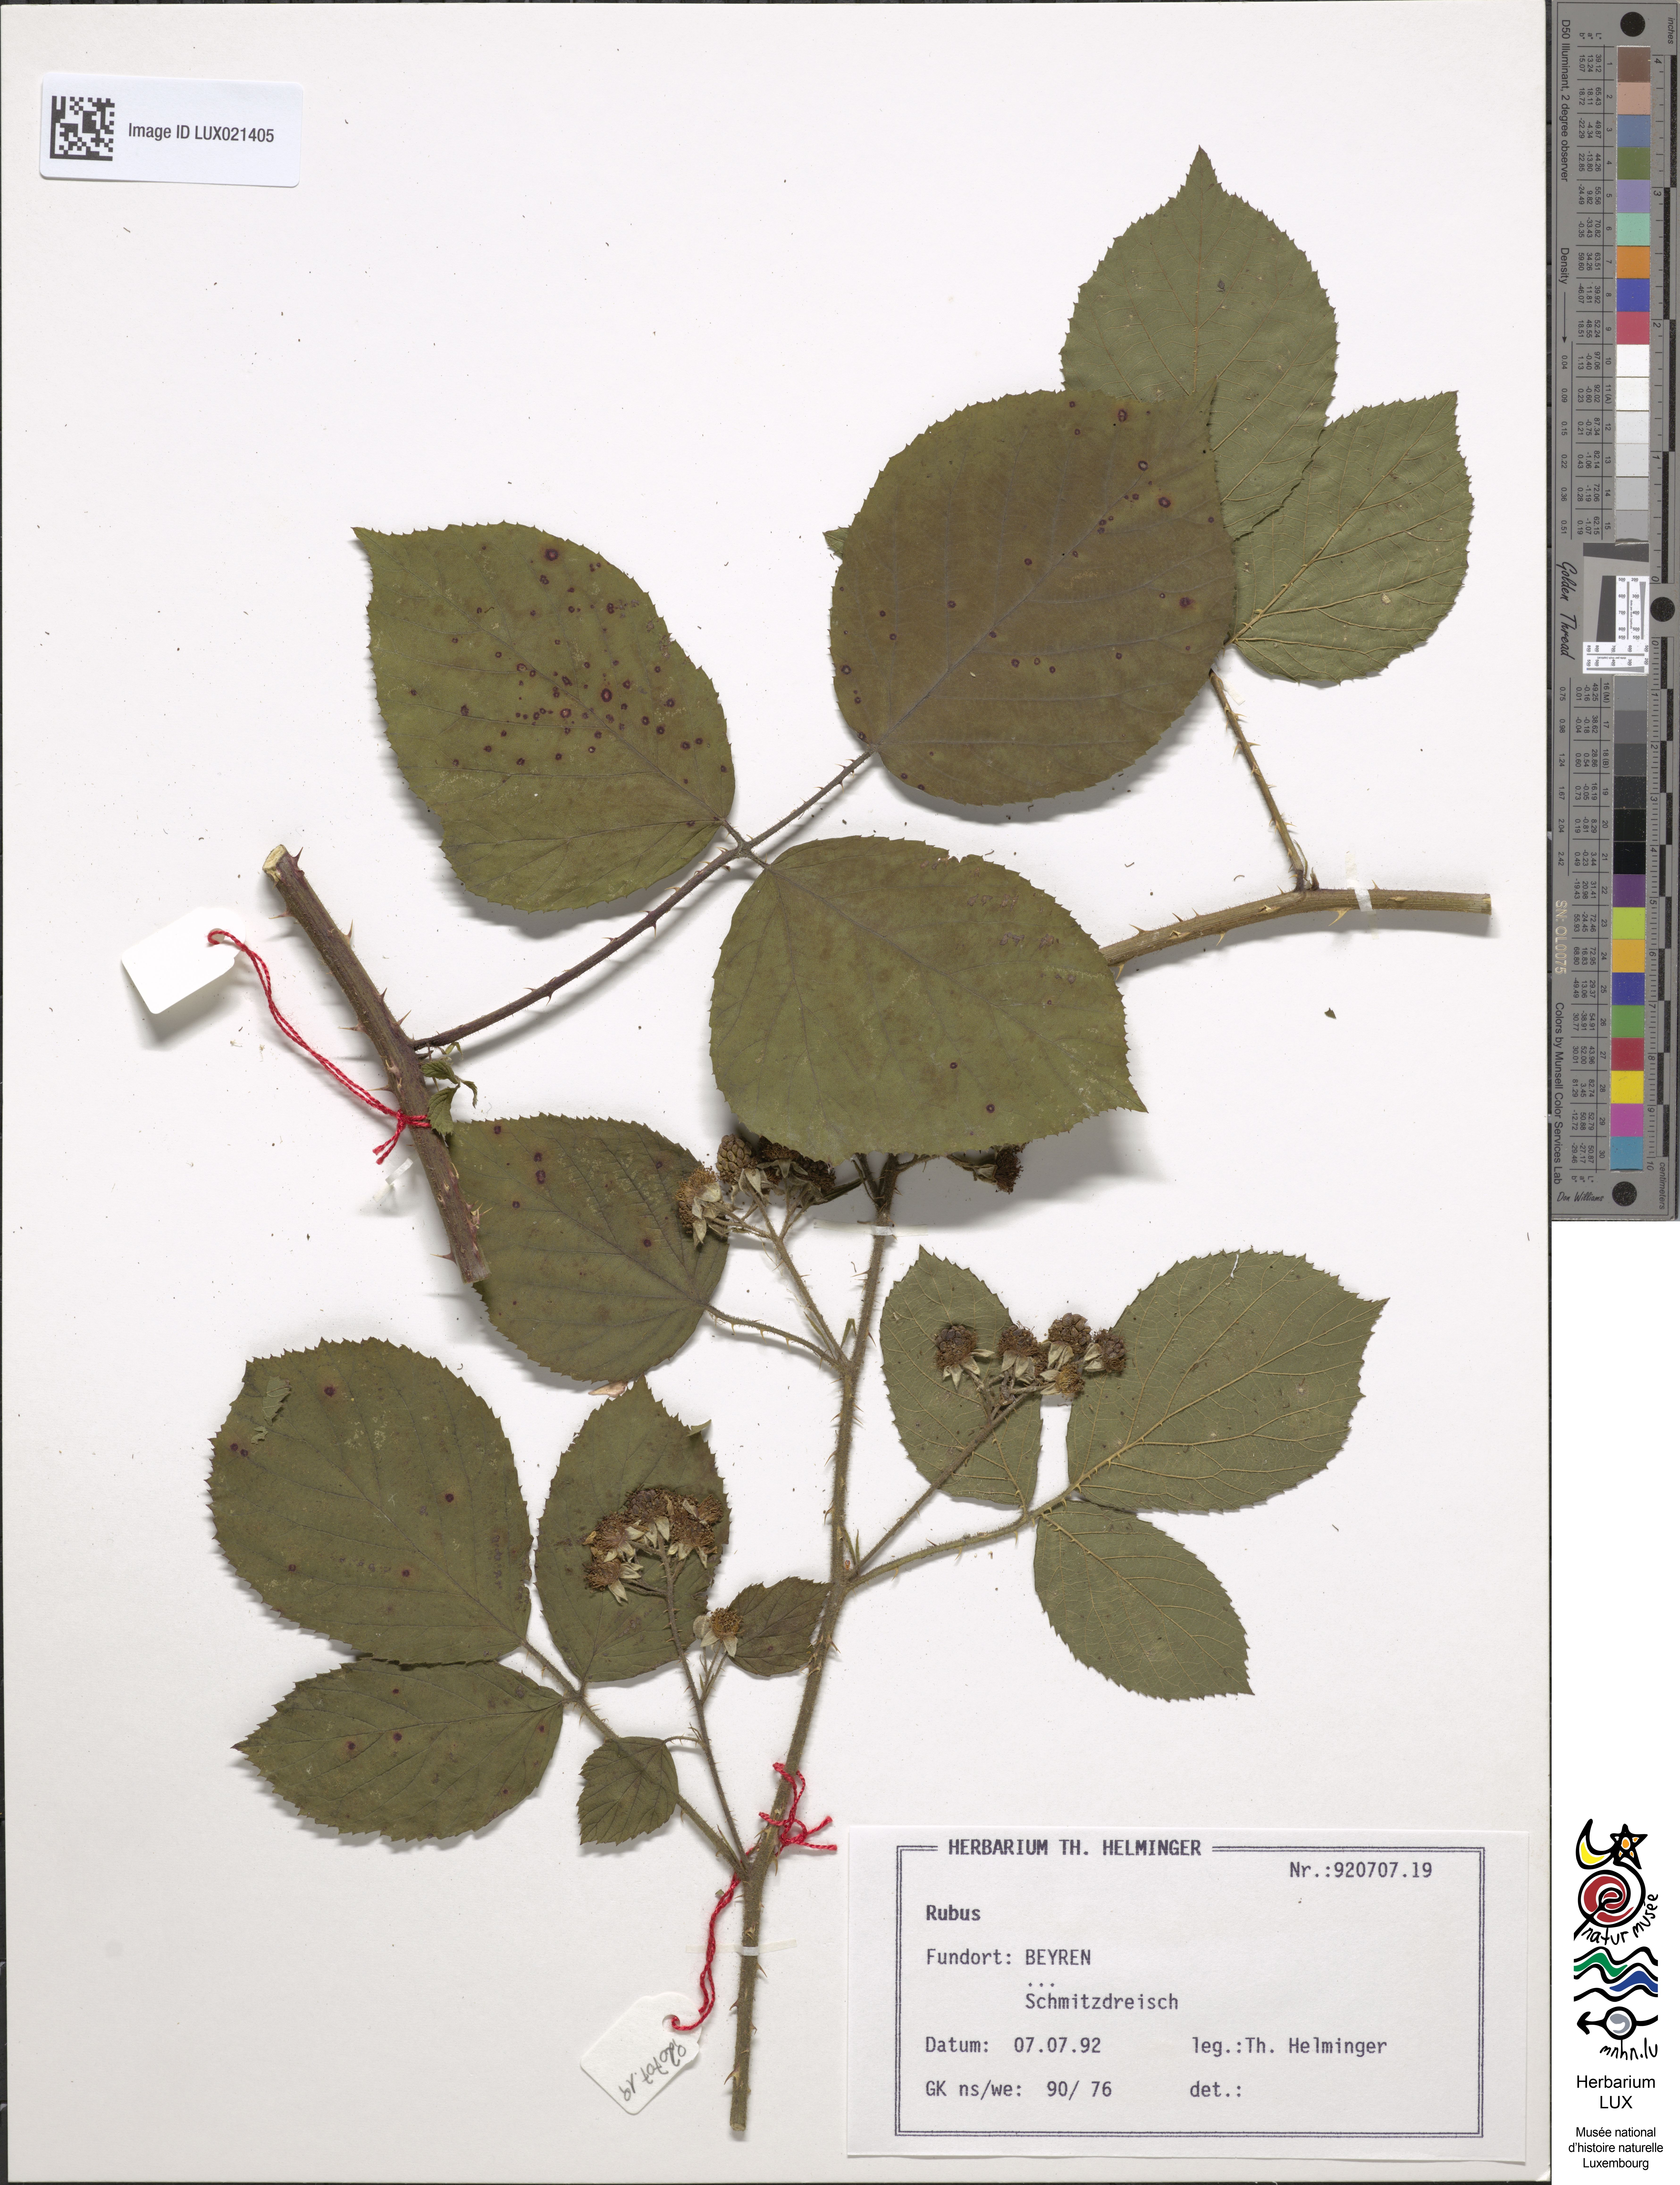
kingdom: Plantae
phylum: Tracheophyta
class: Magnoliopsida
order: Rosales
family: Rosaceae
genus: Rubus
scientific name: Rubus
